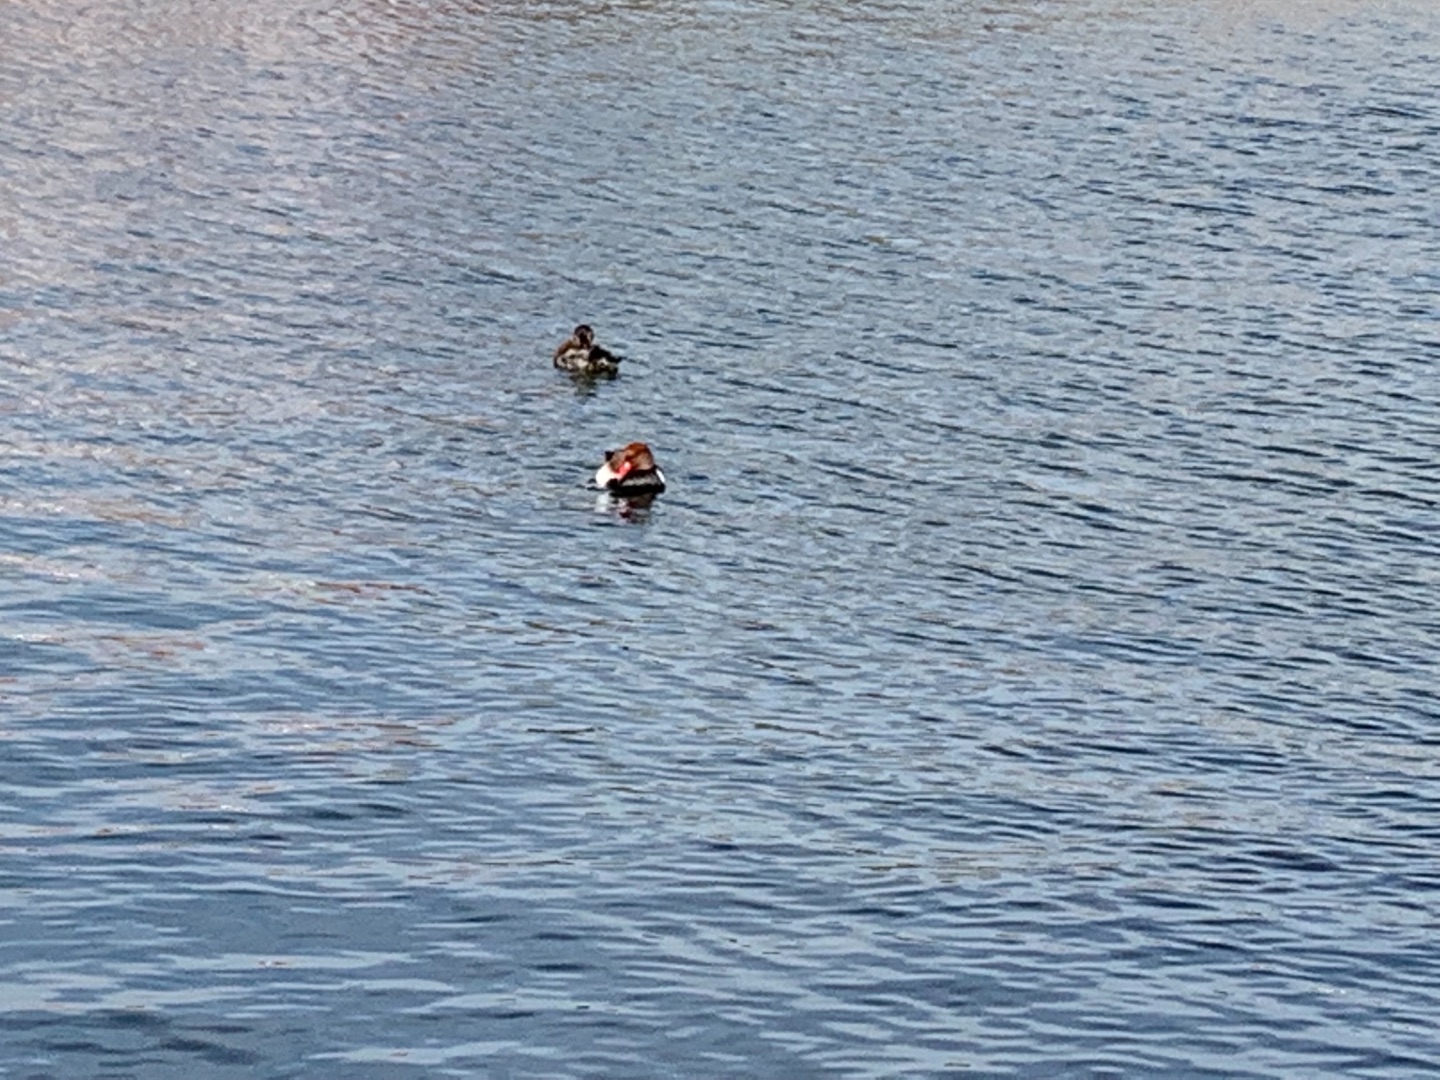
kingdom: Animalia
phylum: Chordata
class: Aves
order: Anseriformes
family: Anatidae
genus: Netta
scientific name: Netta rufina
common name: Rødhovedet and
